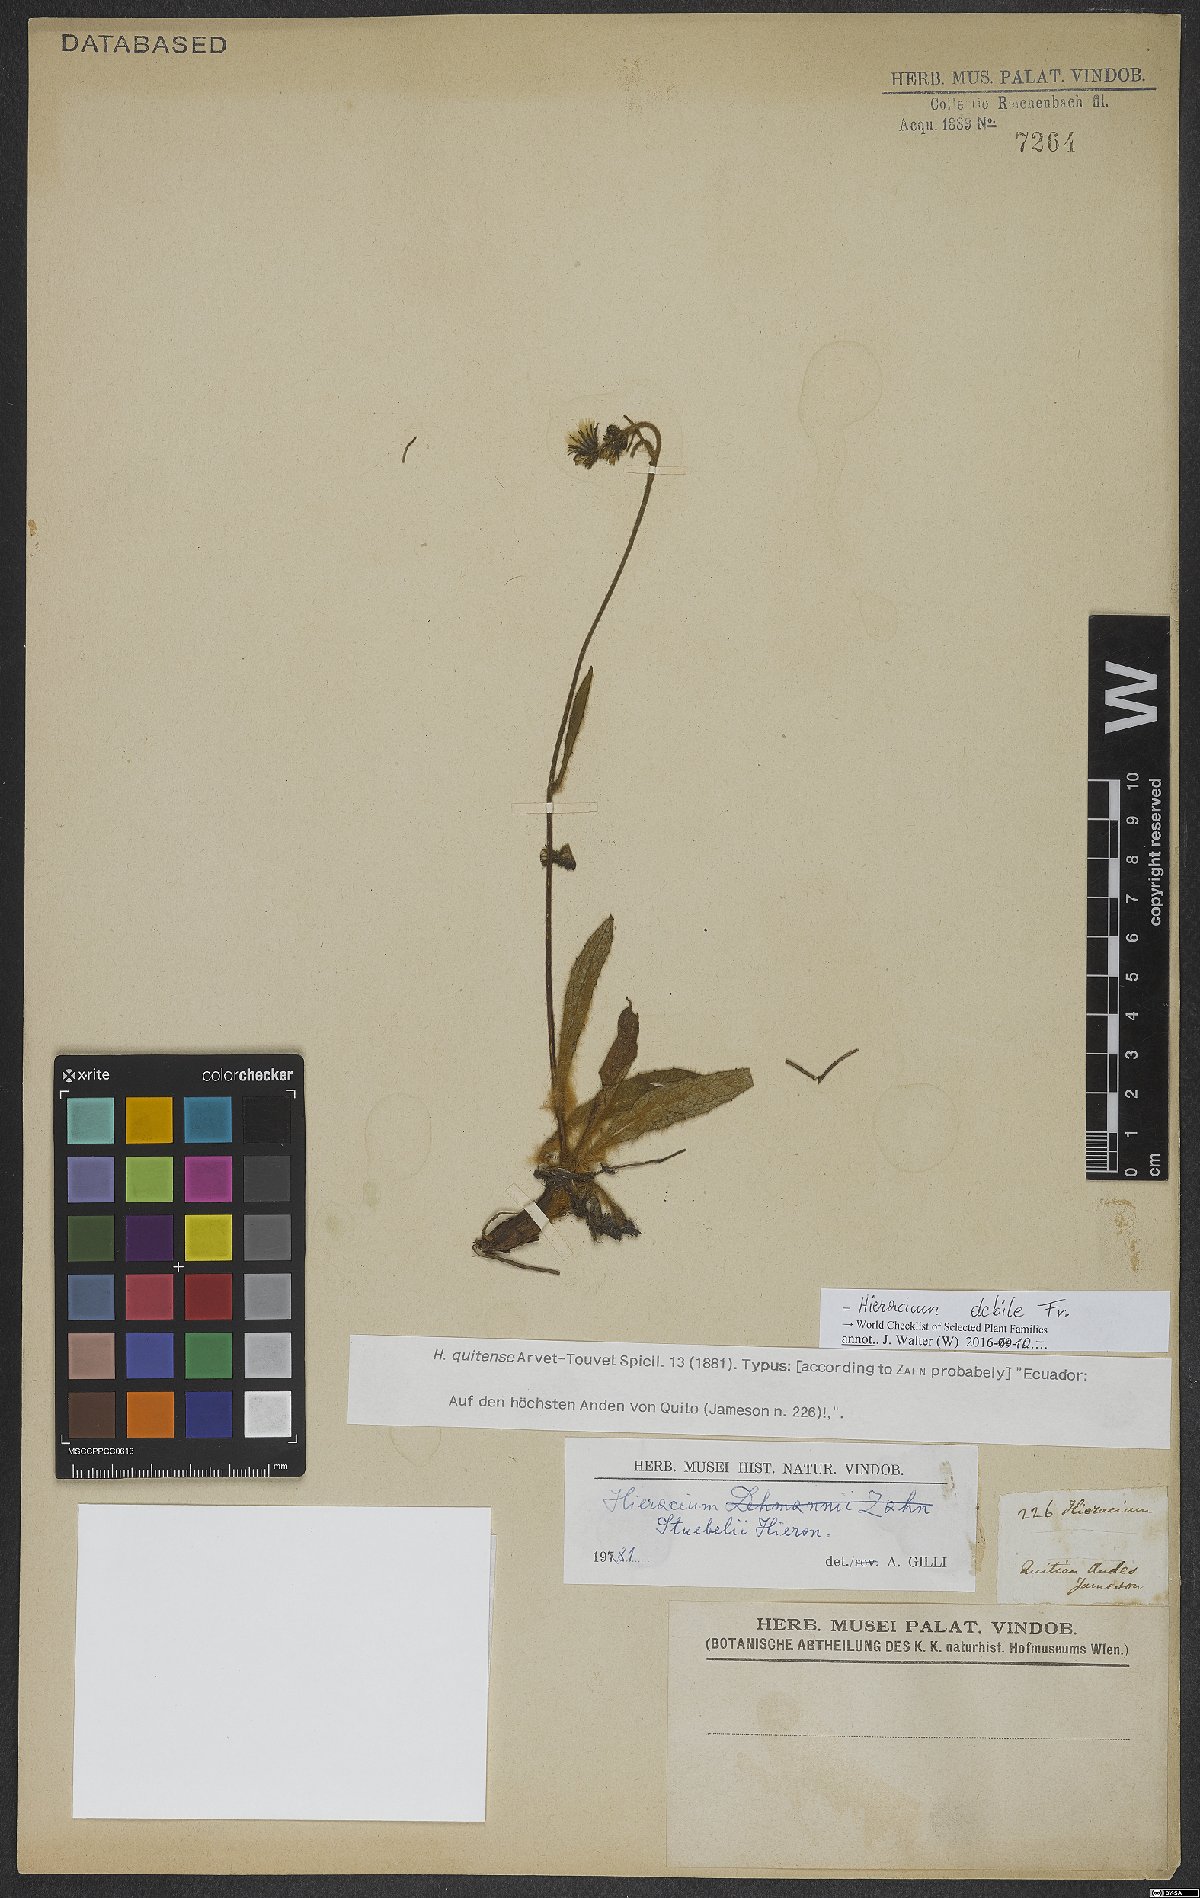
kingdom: Plantae
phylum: Tracheophyta
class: Magnoliopsida
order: Asterales
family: Asteraceae
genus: Hieracium
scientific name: Hieracium debile
